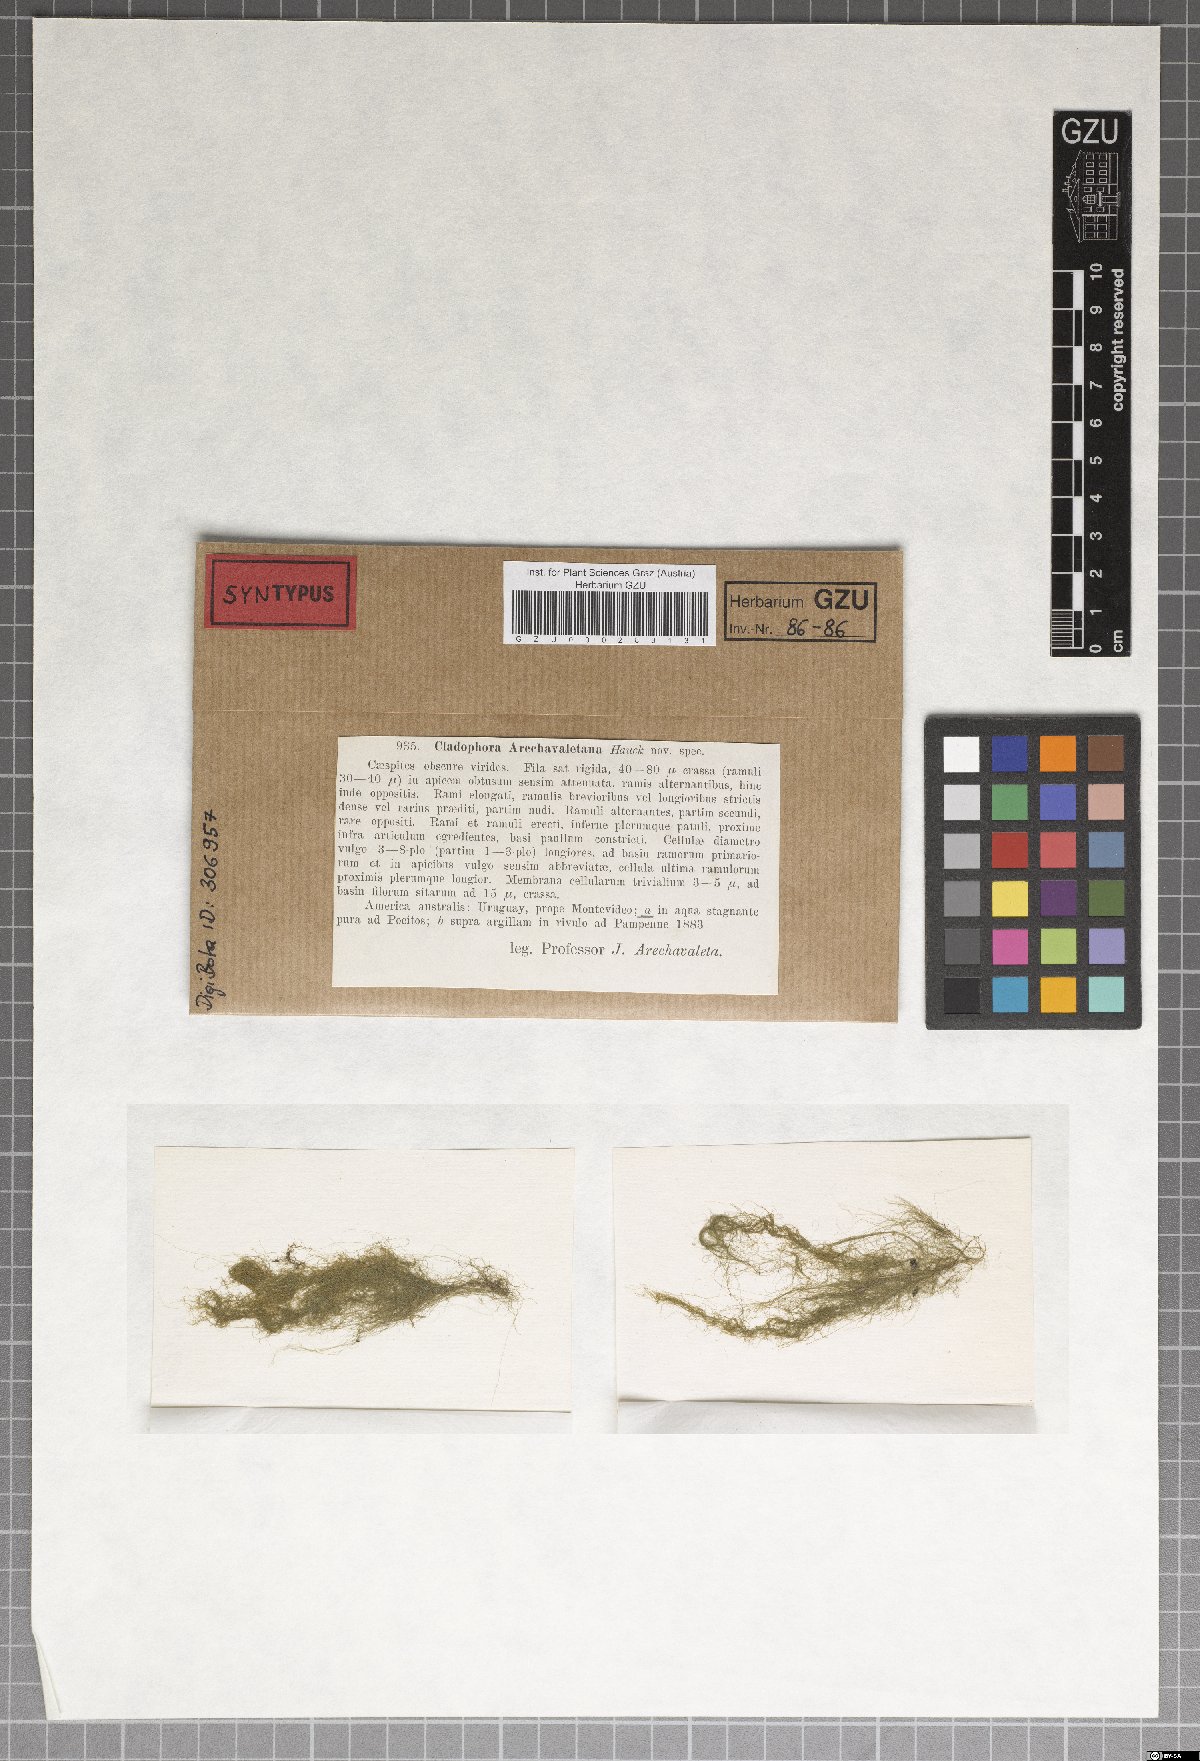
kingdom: Plantae
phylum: Chlorophyta
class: Ulvophyceae
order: Cladophorales
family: Cladophoraceae
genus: Cladophora
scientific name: Cladophora
